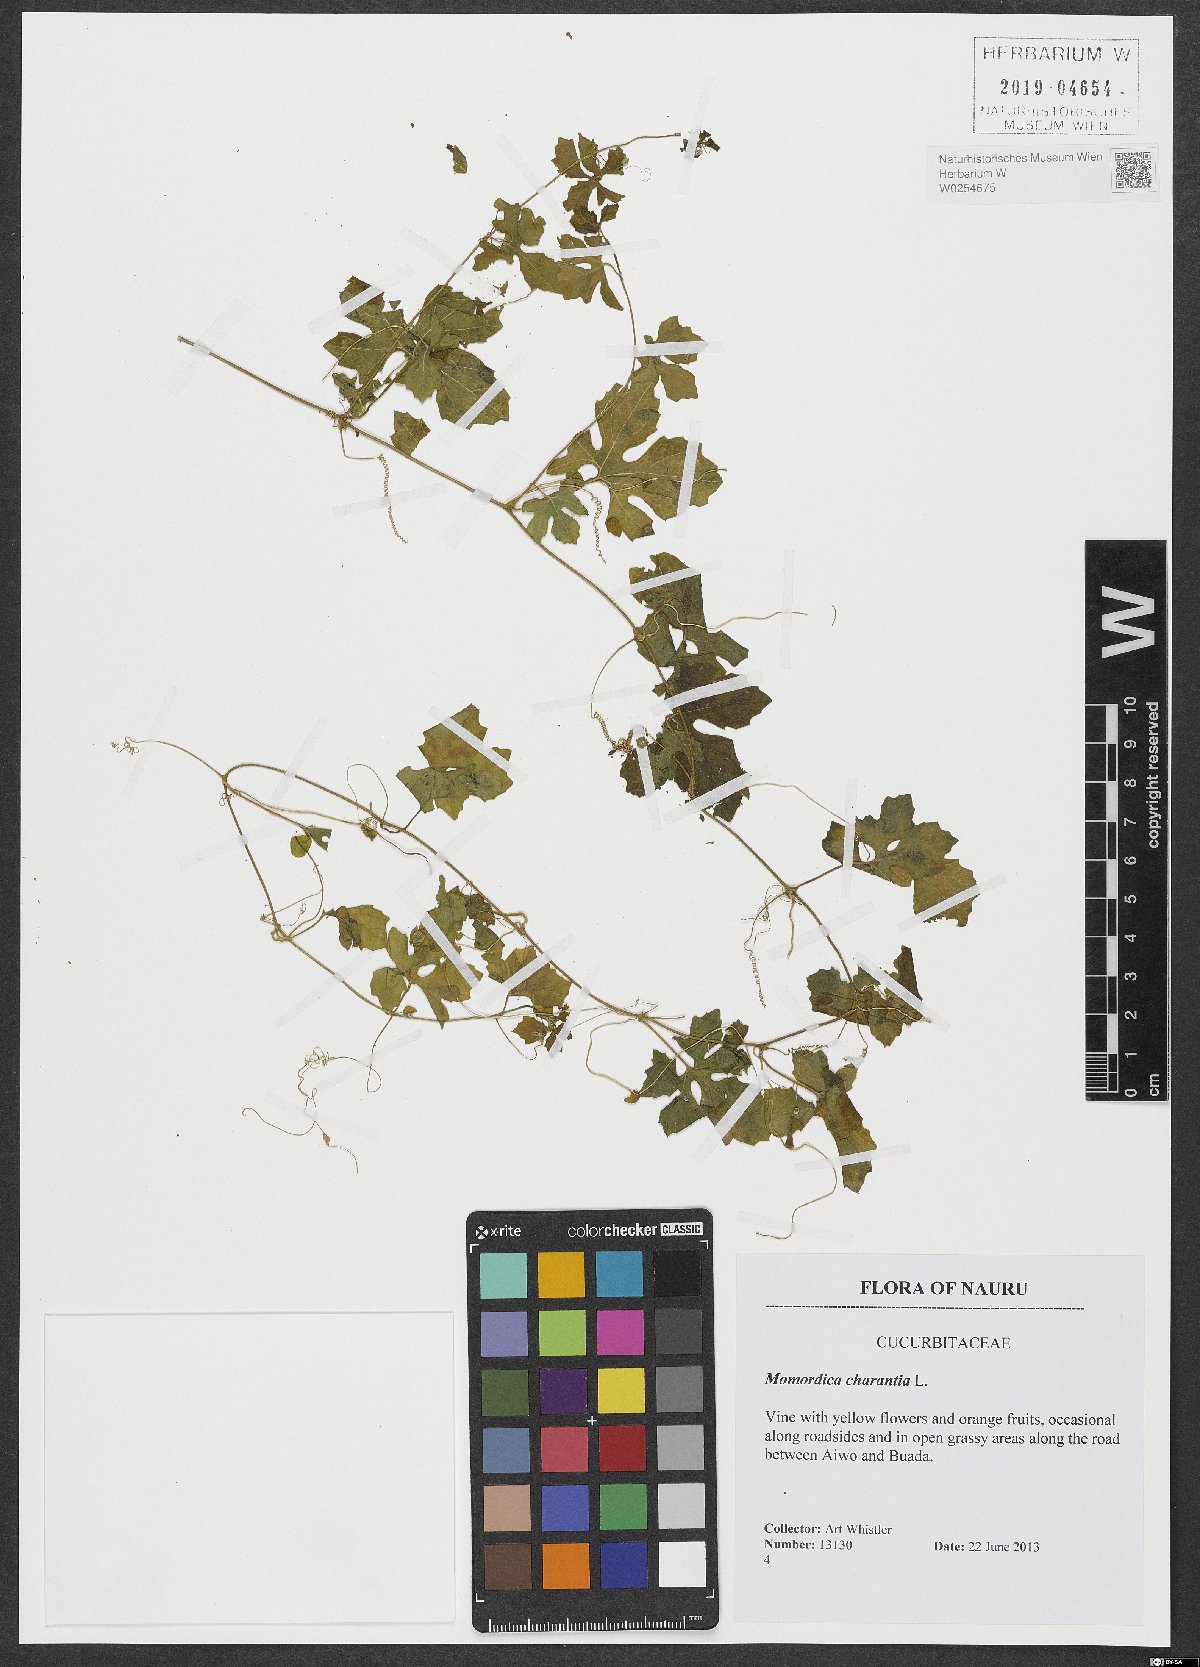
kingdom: Plantae
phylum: Tracheophyta
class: Magnoliopsida
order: Cucurbitales
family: Cucurbitaceae
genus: Momordica
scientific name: Momordica charantia
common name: Balsampear
